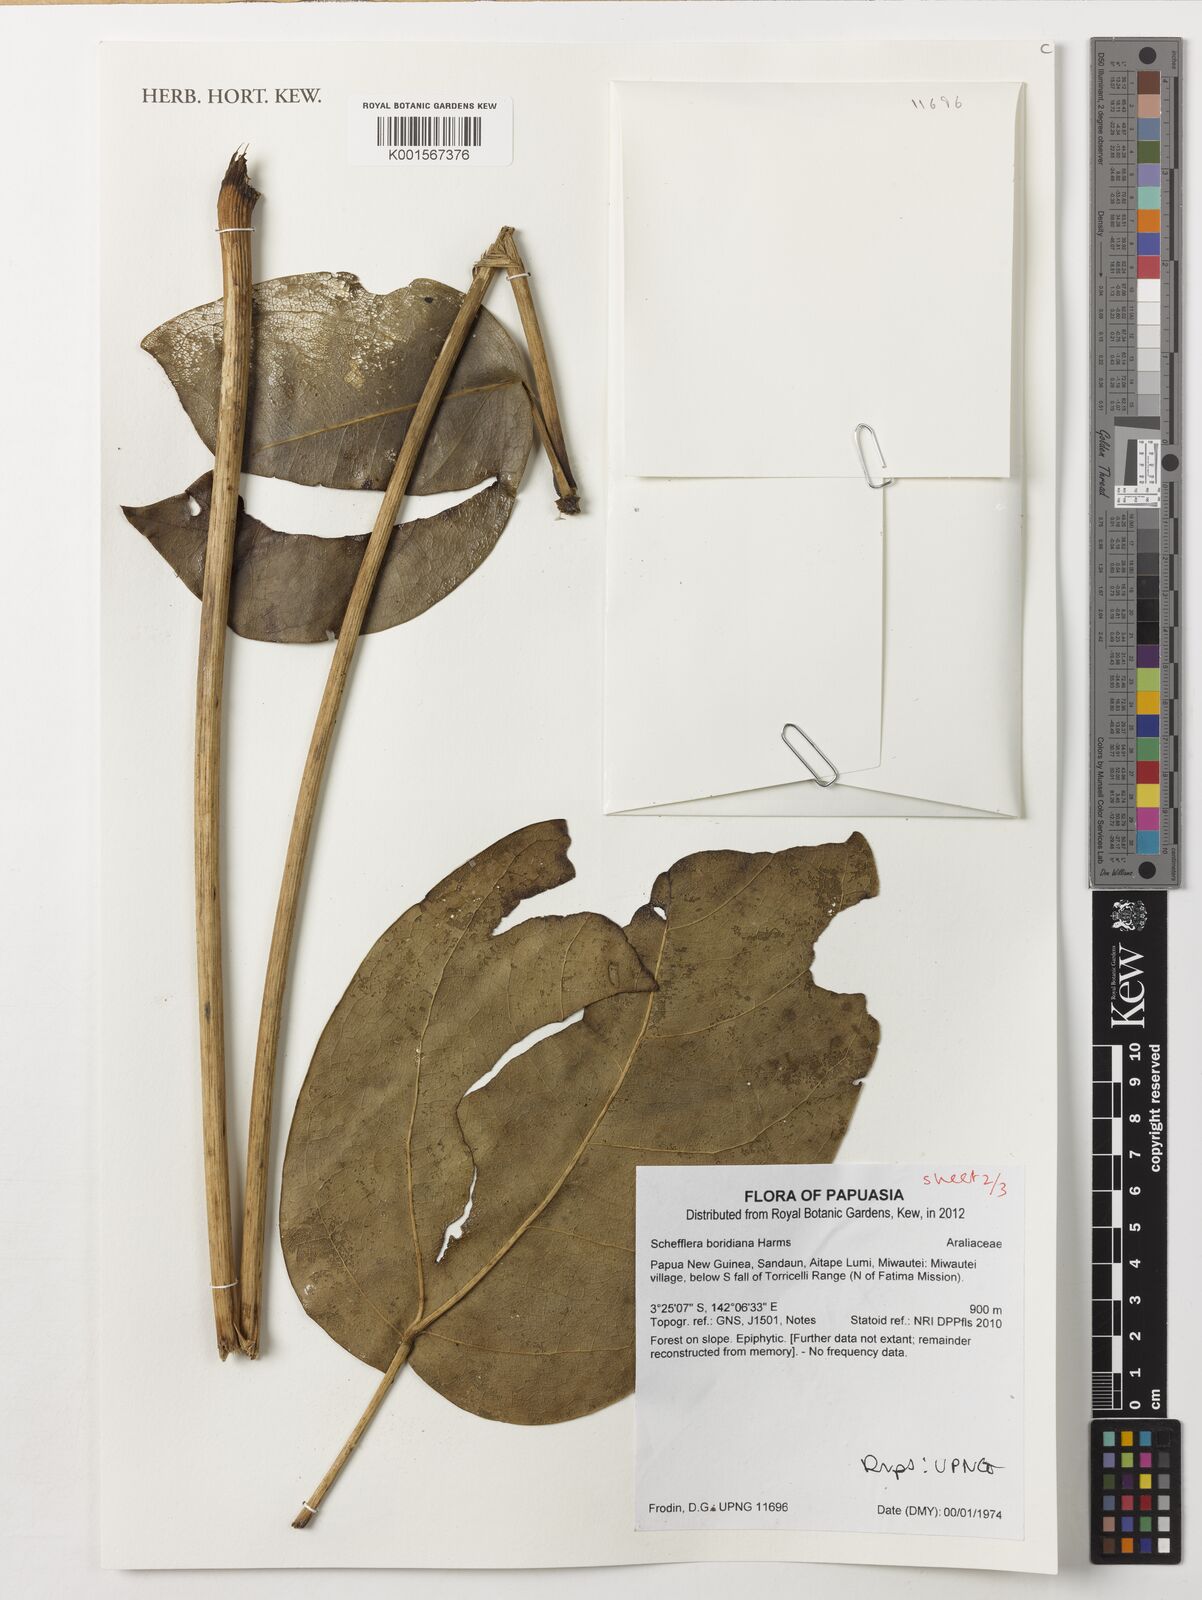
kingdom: Plantae
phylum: Tracheophyta
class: Magnoliopsida
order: Apiales
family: Araliaceae
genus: Heptapleurum
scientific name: Heptapleurum boridianum
